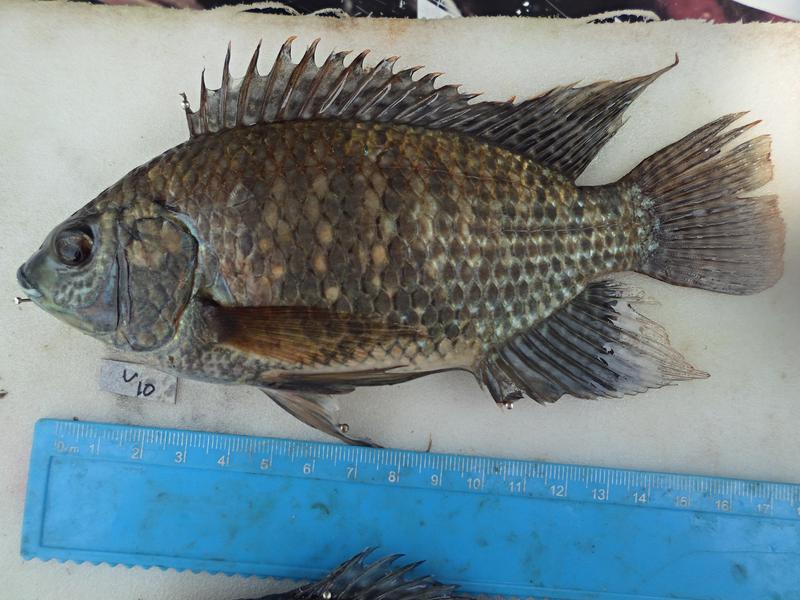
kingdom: Animalia
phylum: Chordata
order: Perciformes
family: Cichlidae
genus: Oreochromis
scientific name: Oreochromis leucostictus
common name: Blue spotted tilapia
